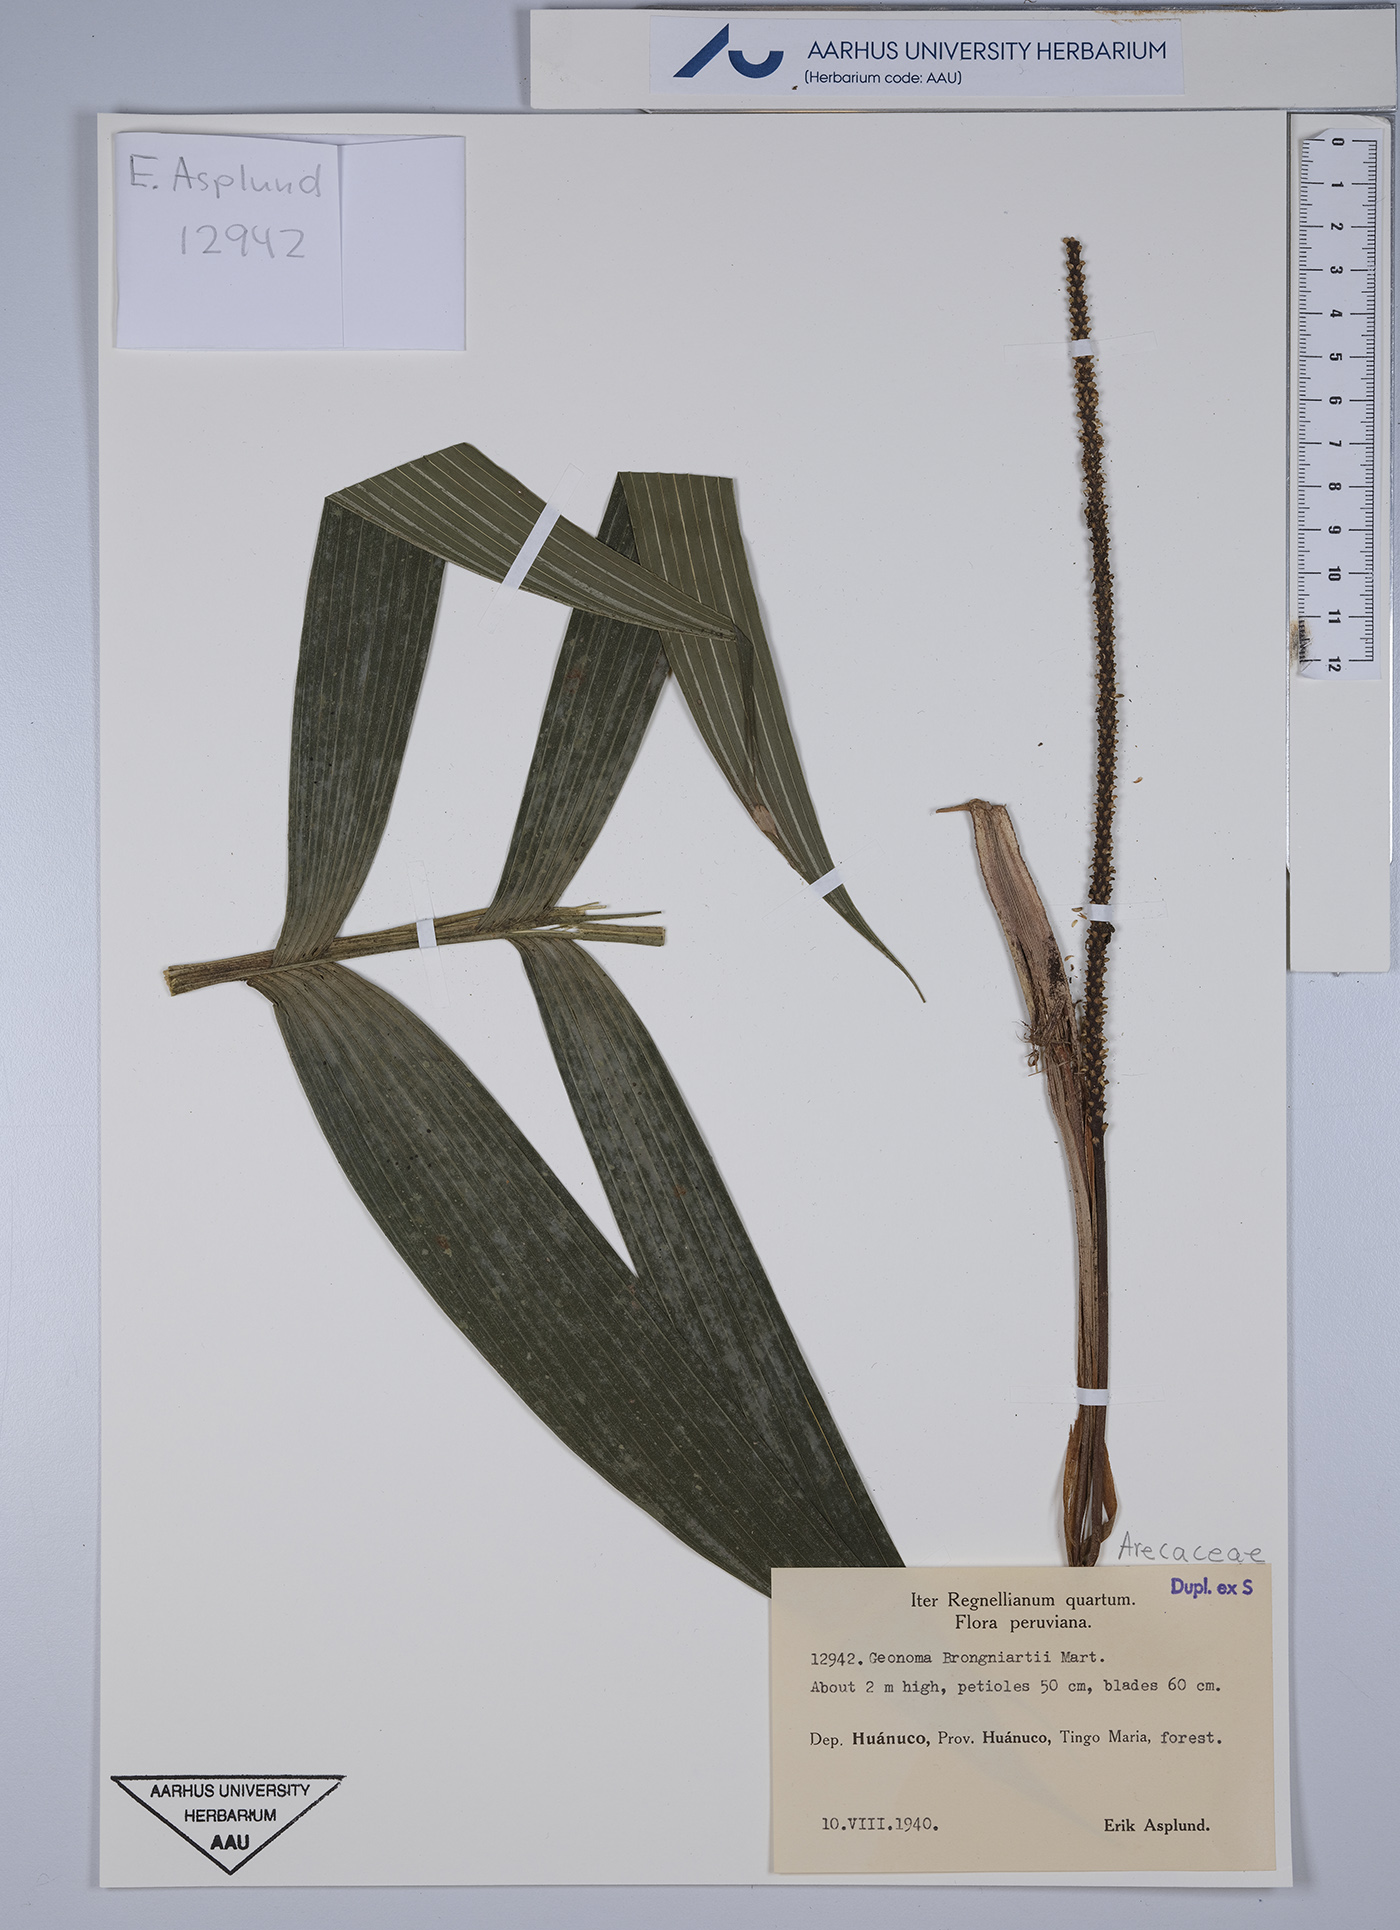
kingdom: Plantae
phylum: Tracheophyta
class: Liliopsida
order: Arecales
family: Arecaceae
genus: Geonoma
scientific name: Geonoma brongniartii
